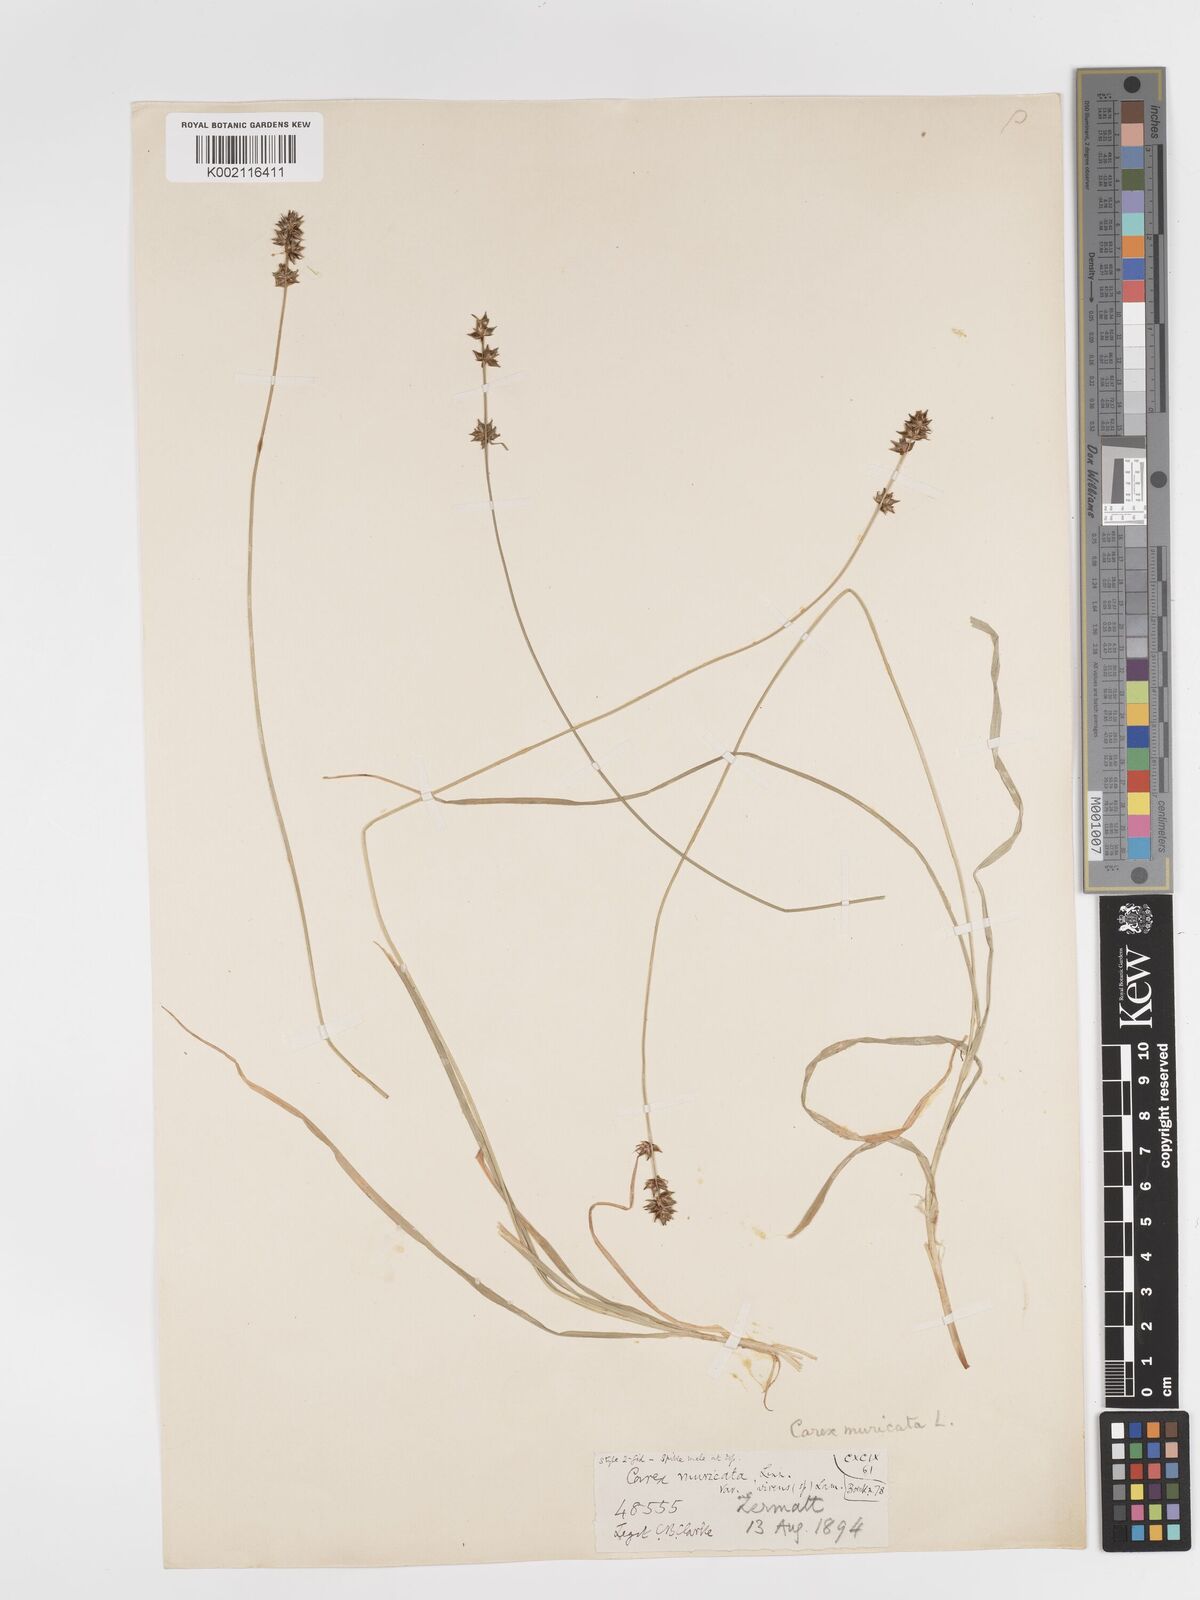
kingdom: Plantae
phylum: Tracheophyta
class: Liliopsida
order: Poales
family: Cyperaceae
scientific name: Cyperaceae
